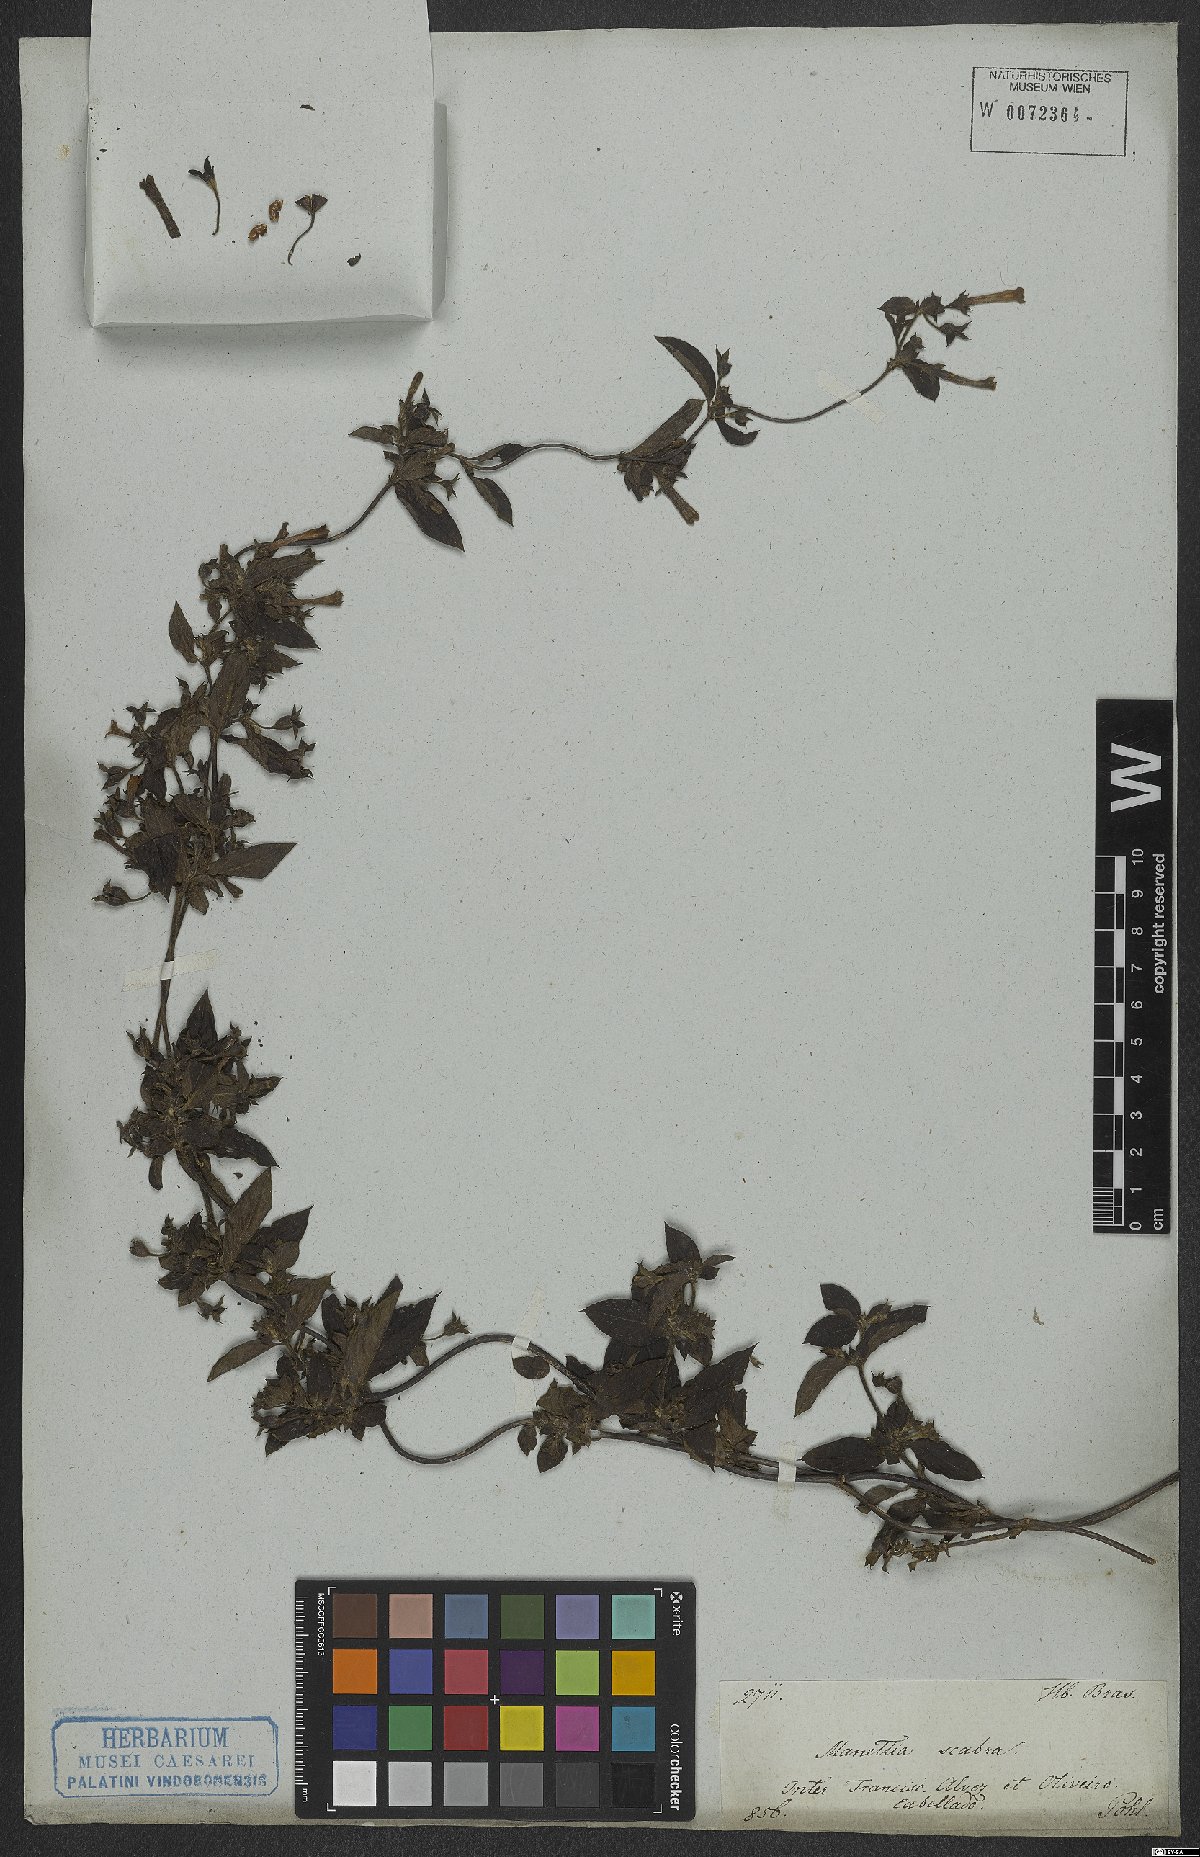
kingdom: Plantae
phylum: Tracheophyta
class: Magnoliopsida
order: Gentianales
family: Rubiaceae
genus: Manettia
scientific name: Manettia luteorubra
